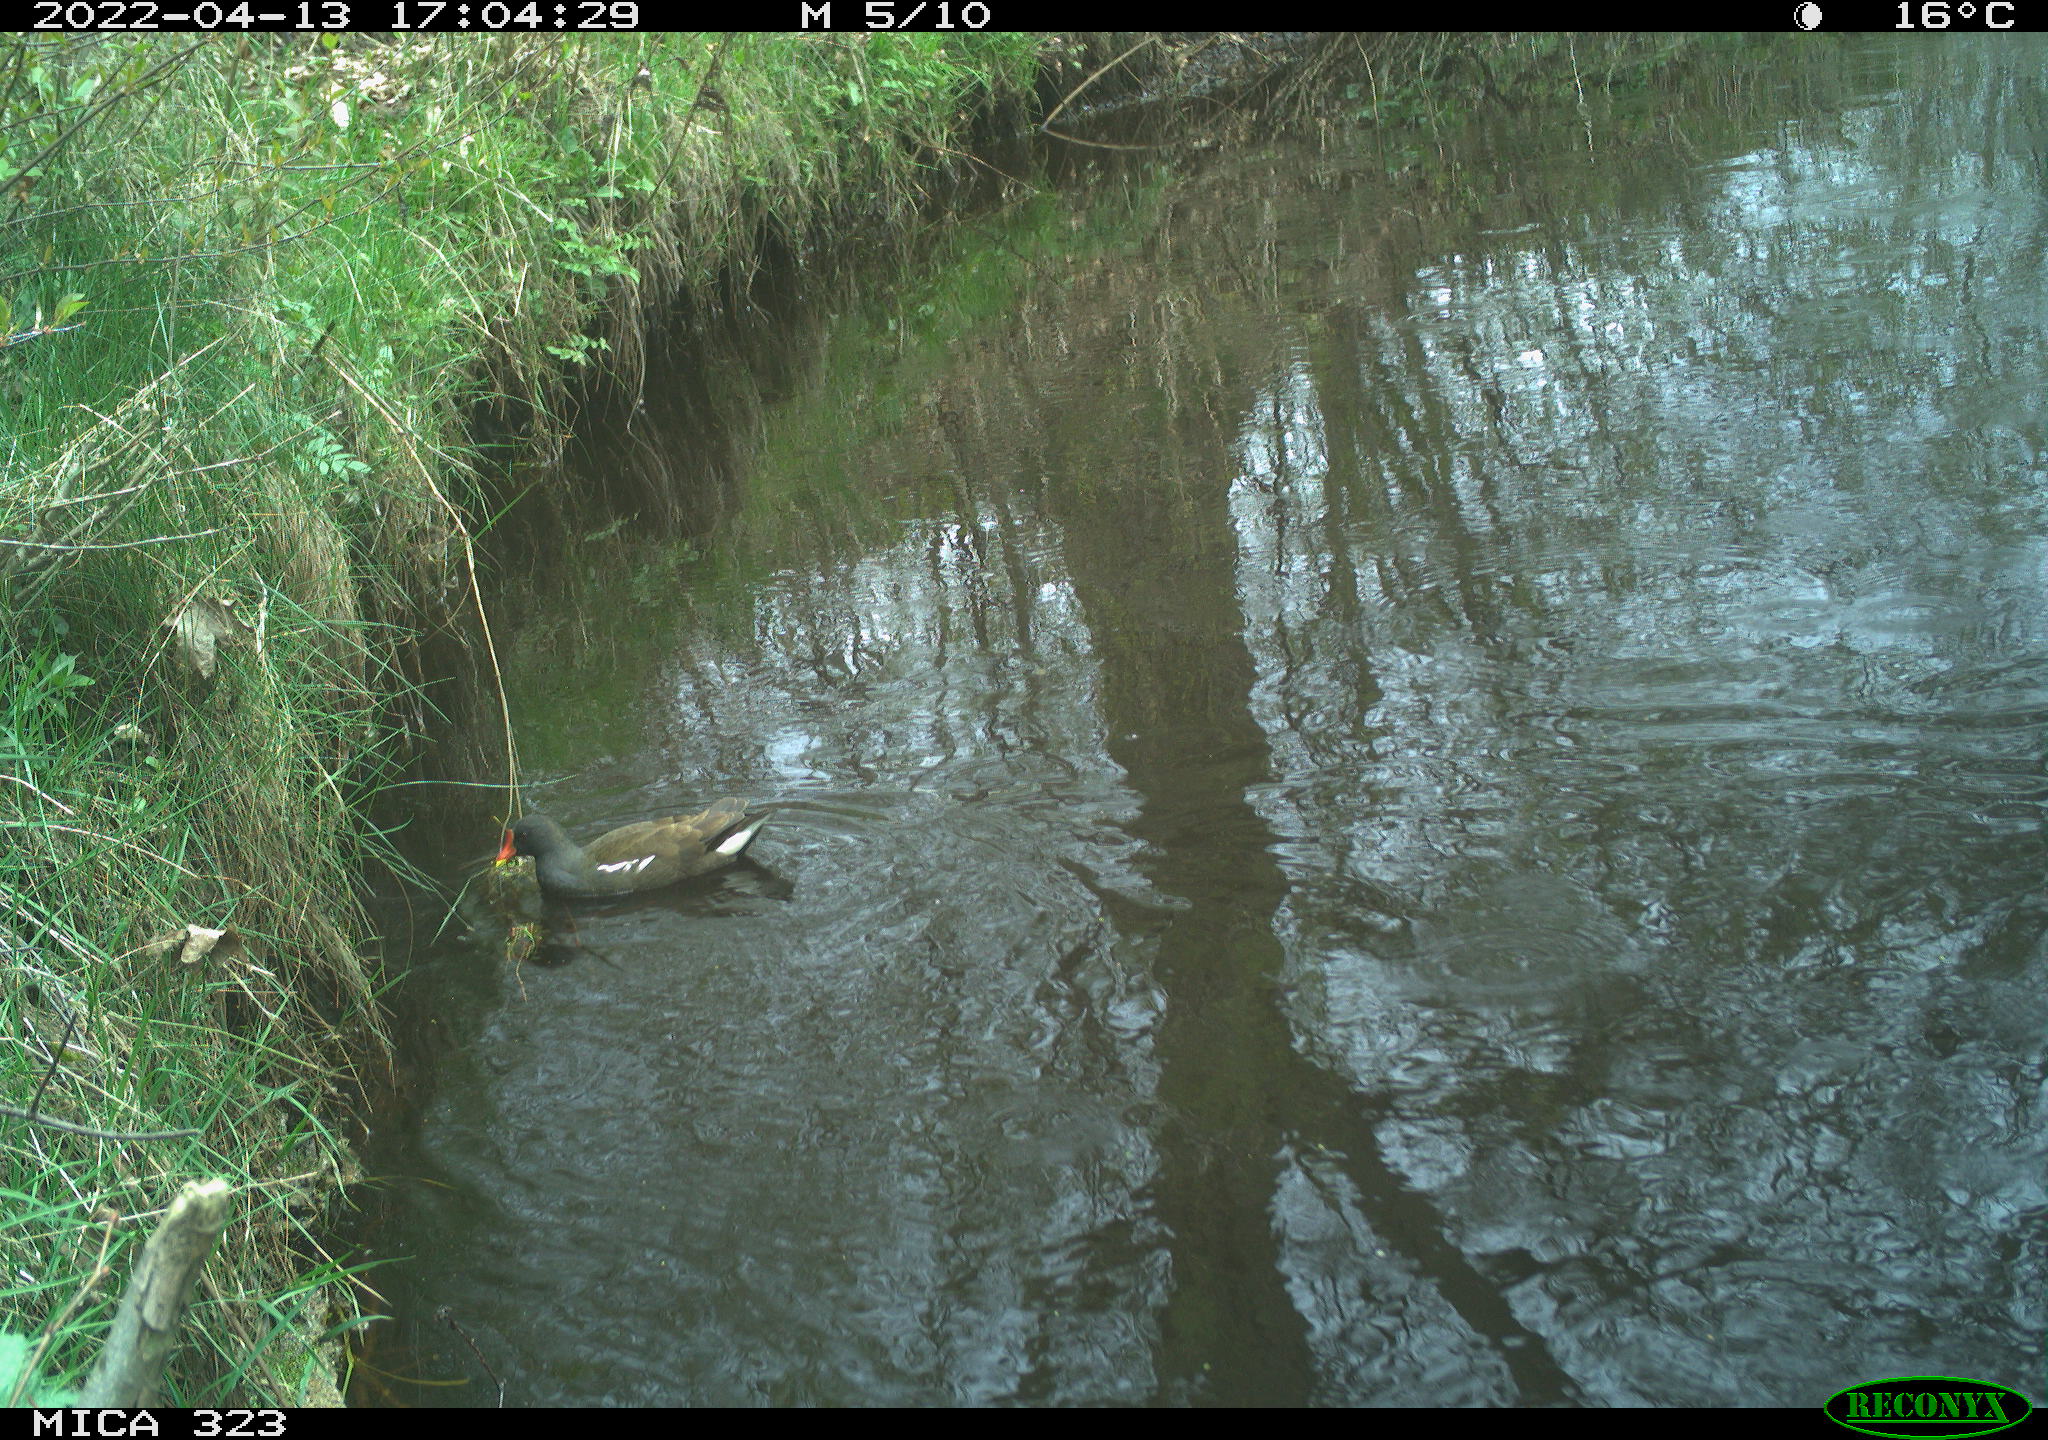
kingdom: Animalia
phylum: Chordata
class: Aves
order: Gruiformes
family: Rallidae
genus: Gallinula
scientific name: Gallinula chloropus
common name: Common moorhen
